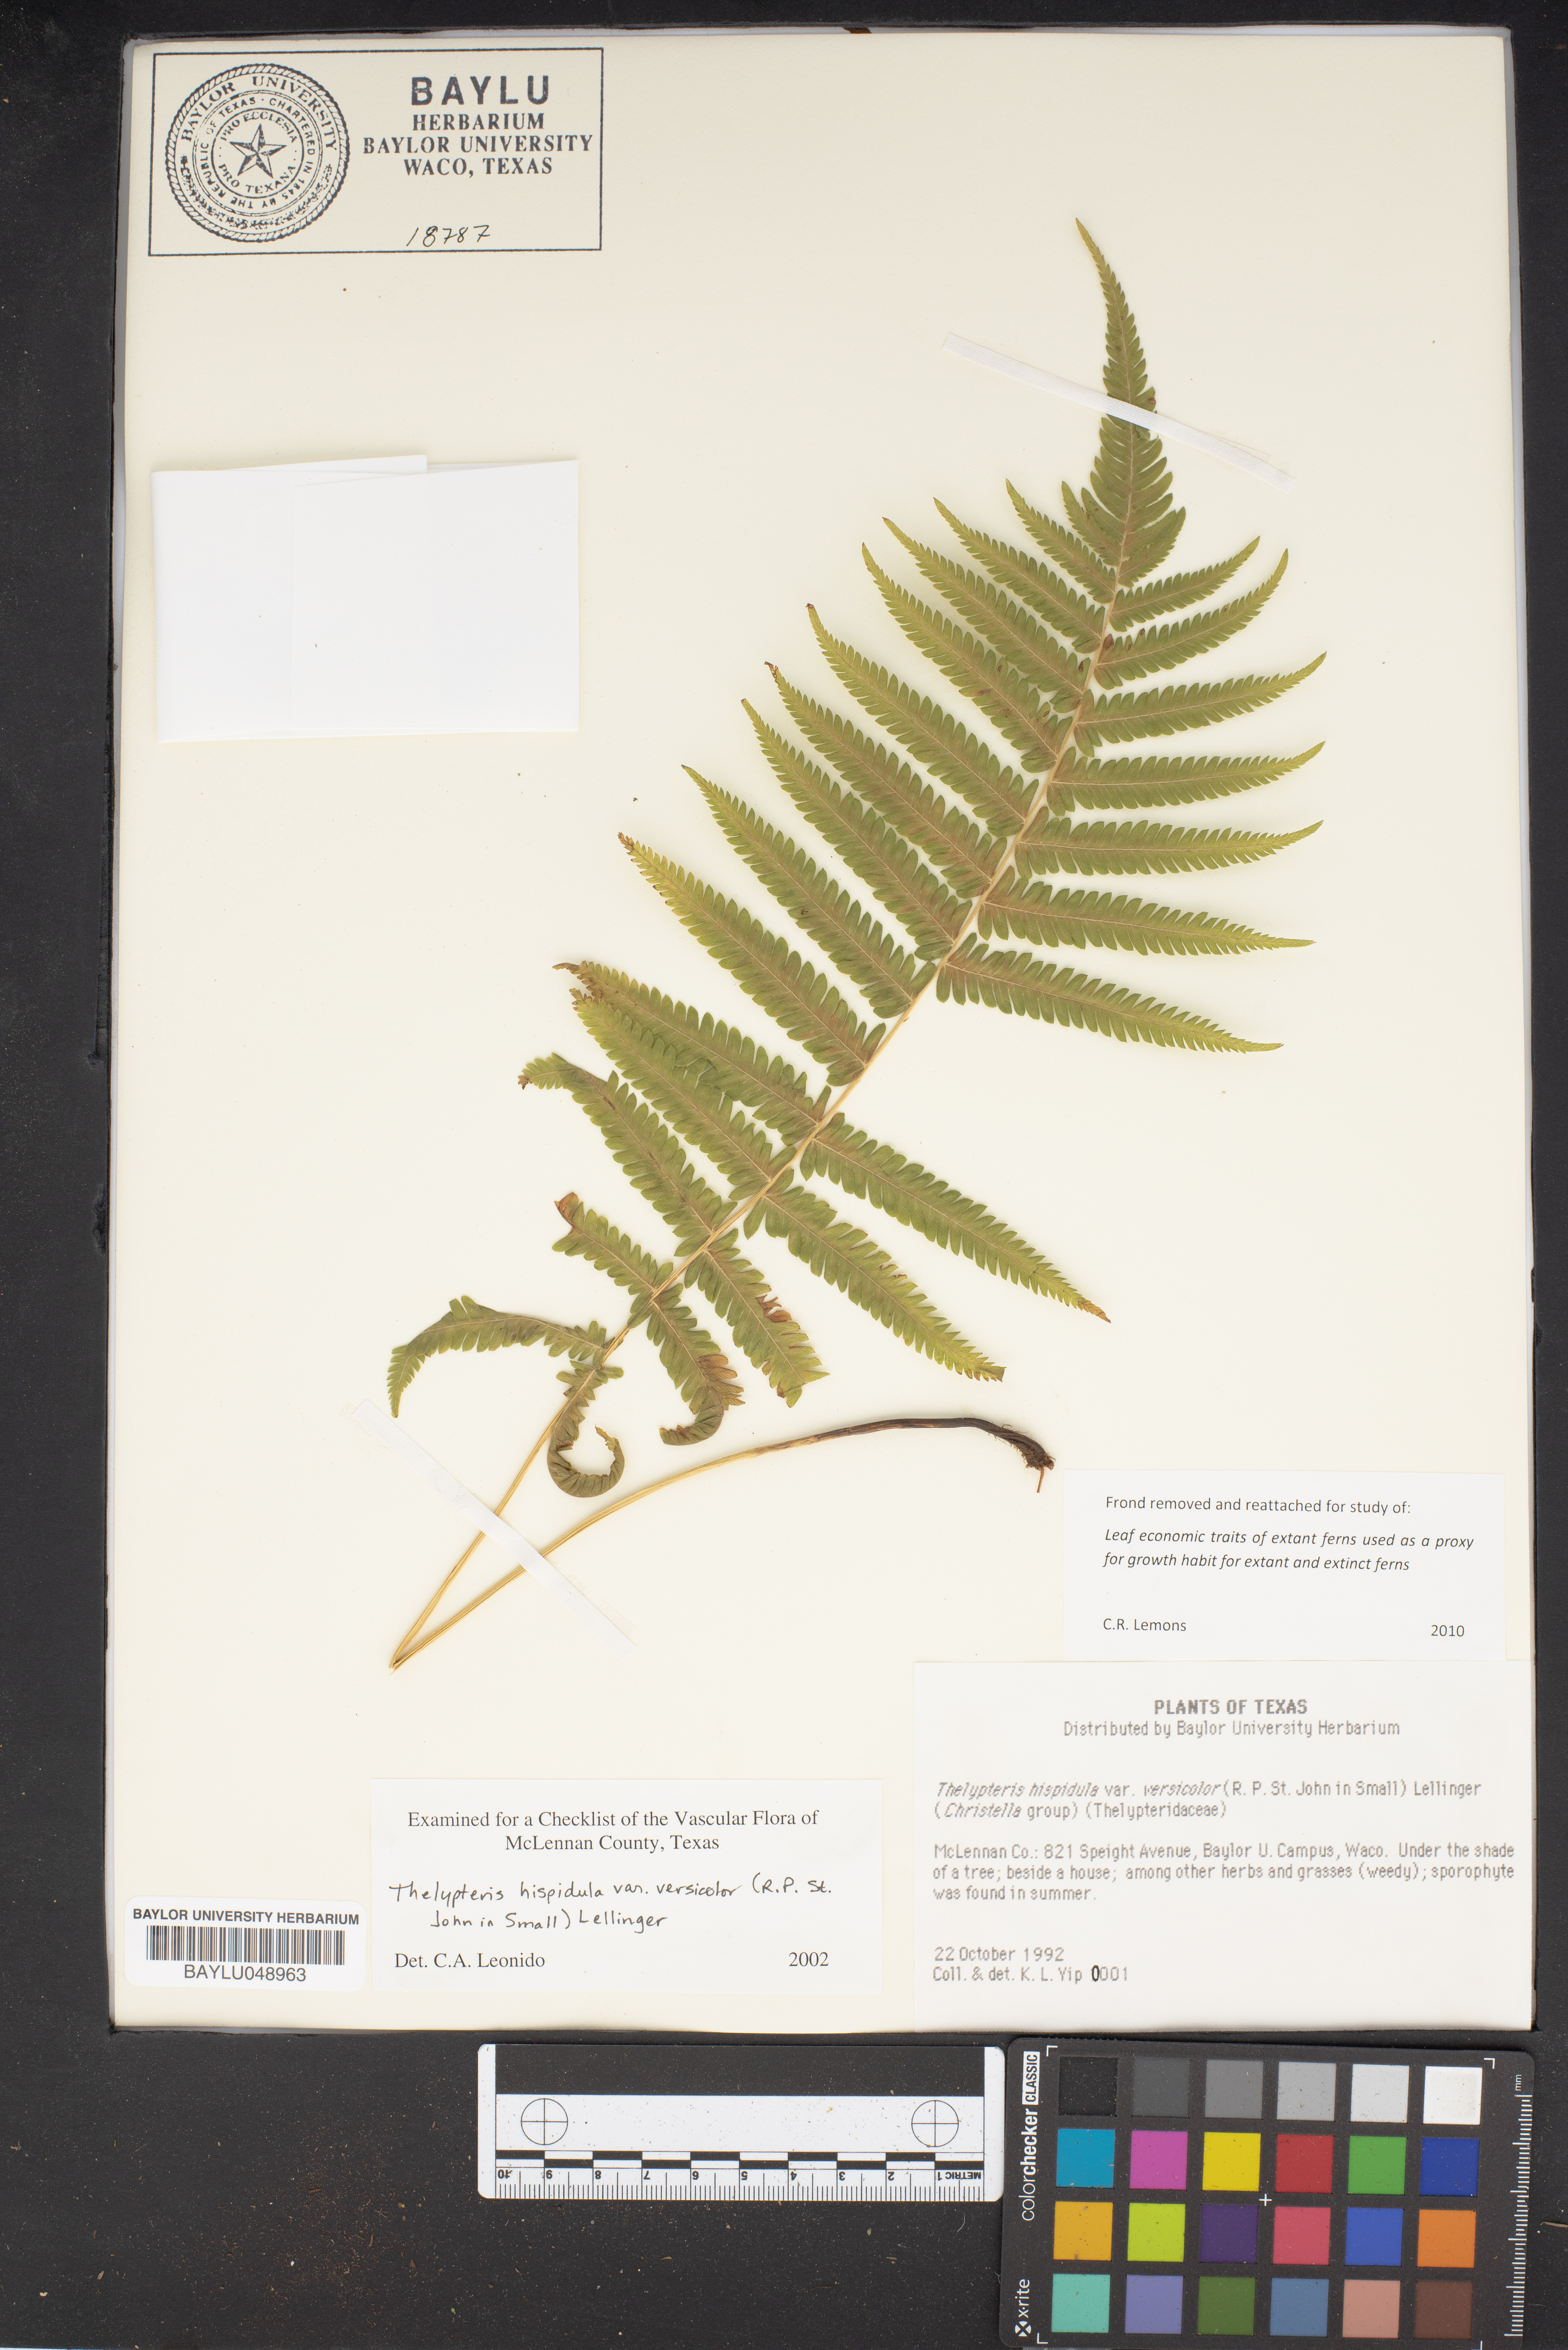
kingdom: Plantae
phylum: Tracheophyta
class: Polypodiopsida
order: Polypodiales
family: Thelypteridaceae
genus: Christella
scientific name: Christella hispidula
